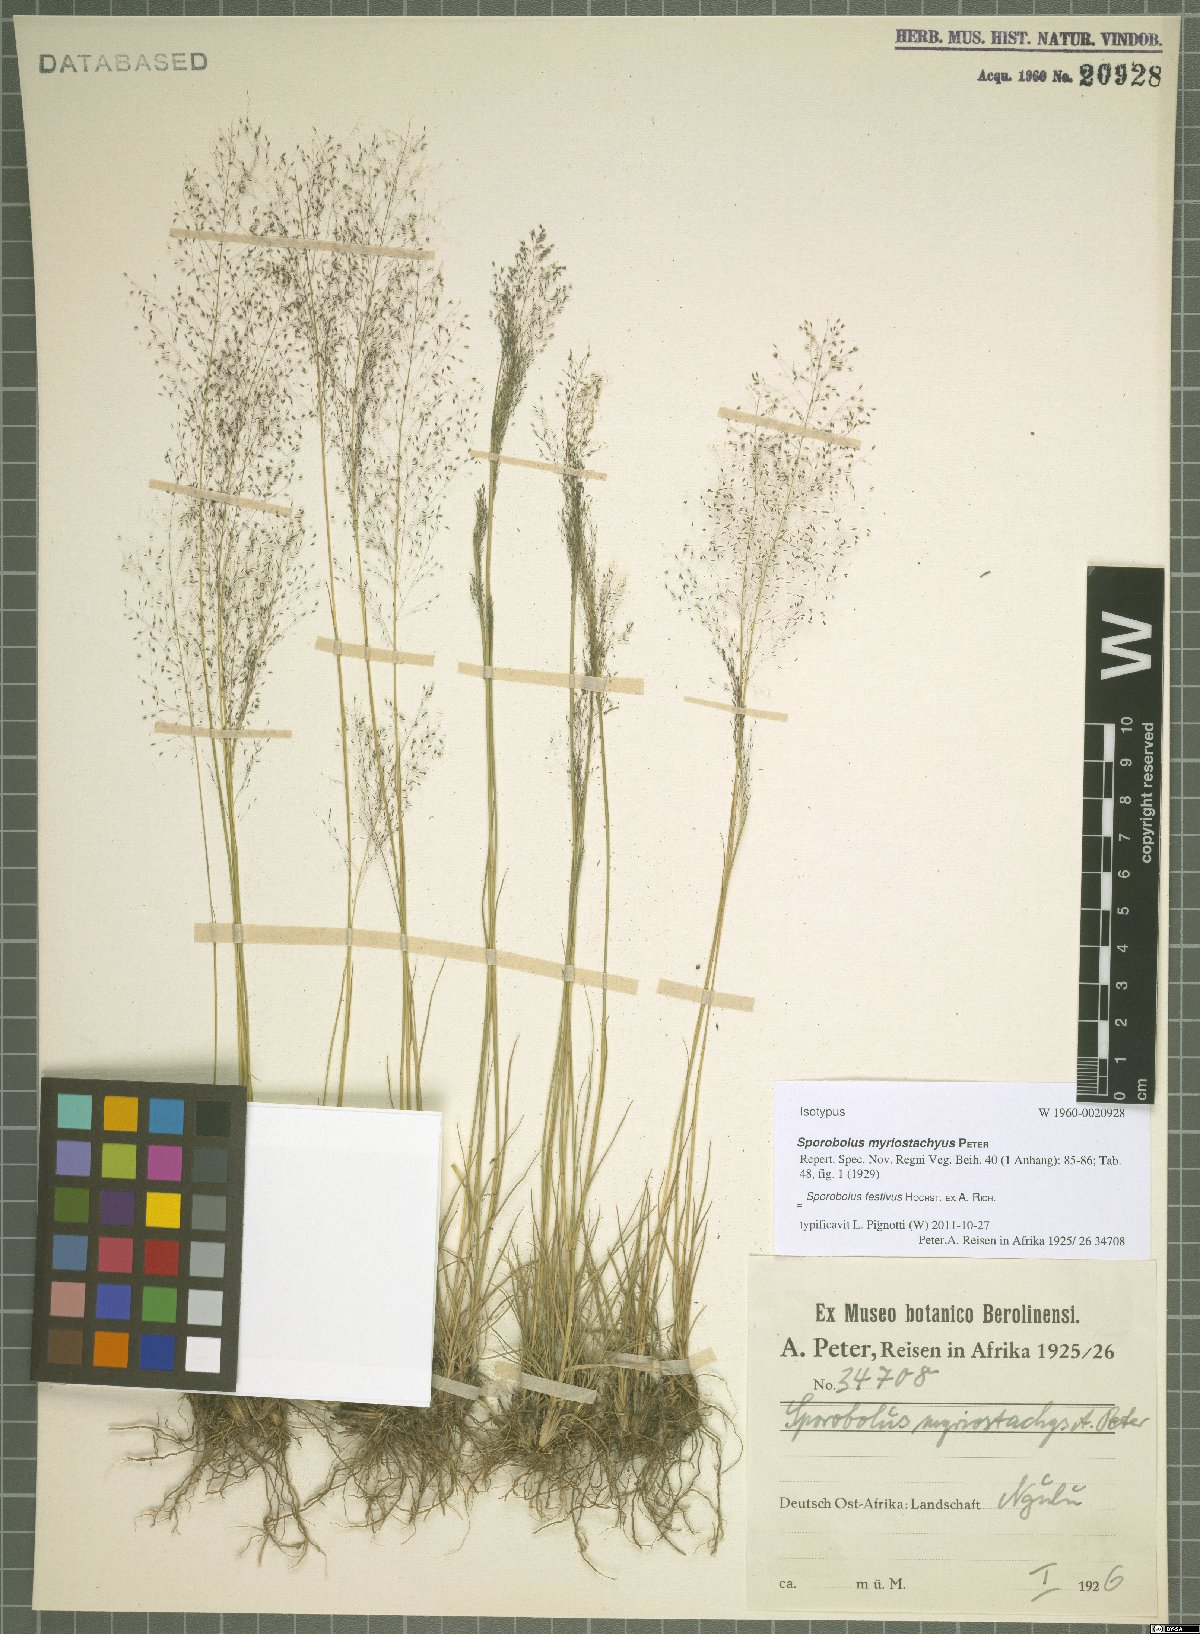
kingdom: Plantae
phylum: Tracheophyta
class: Liliopsida
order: Poales
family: Poaceae
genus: Sporobolus
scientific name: Sporobolus festivus
